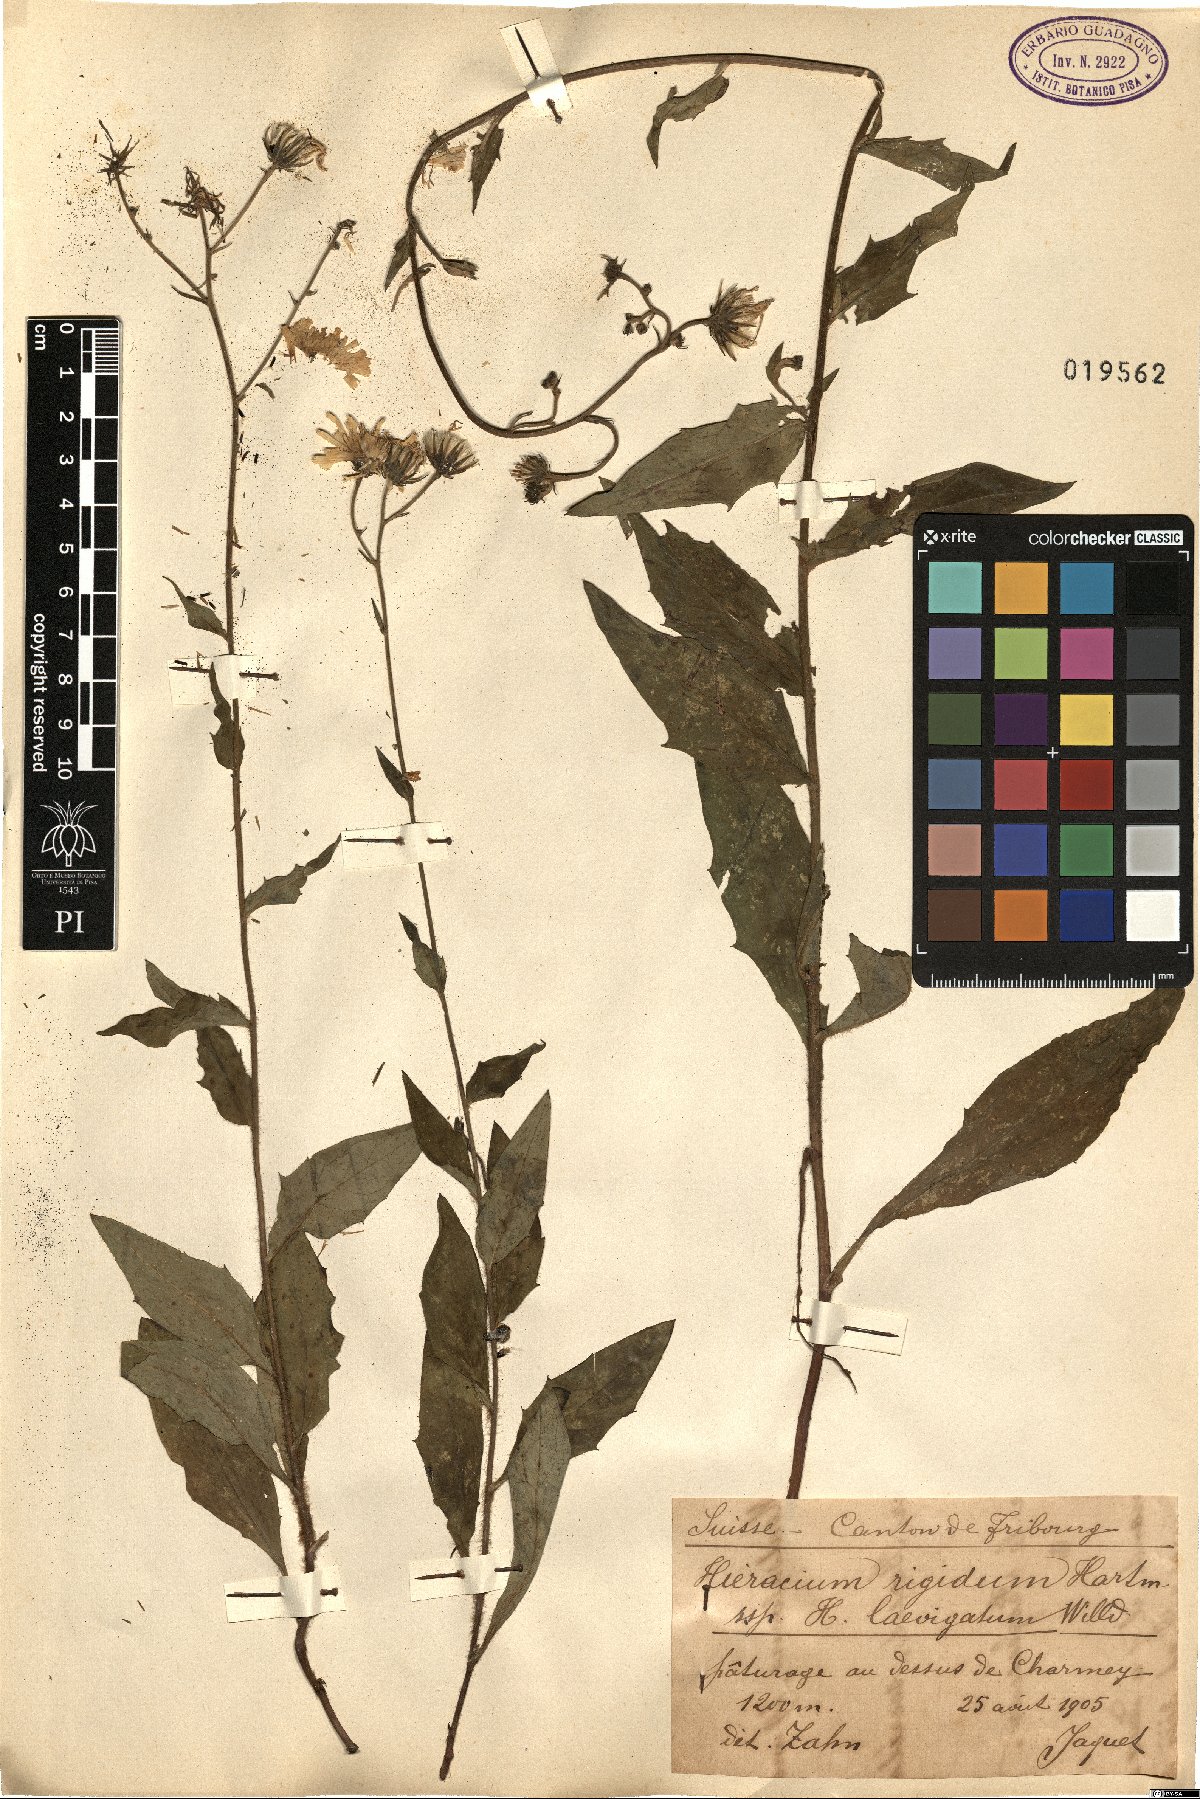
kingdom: Plantae
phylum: Tracheophyta
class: Magnoliopsida
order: Asterales
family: Asteraceae
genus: Hieracium
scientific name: Hieracium laevigatum
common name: Smooth hawkweed
